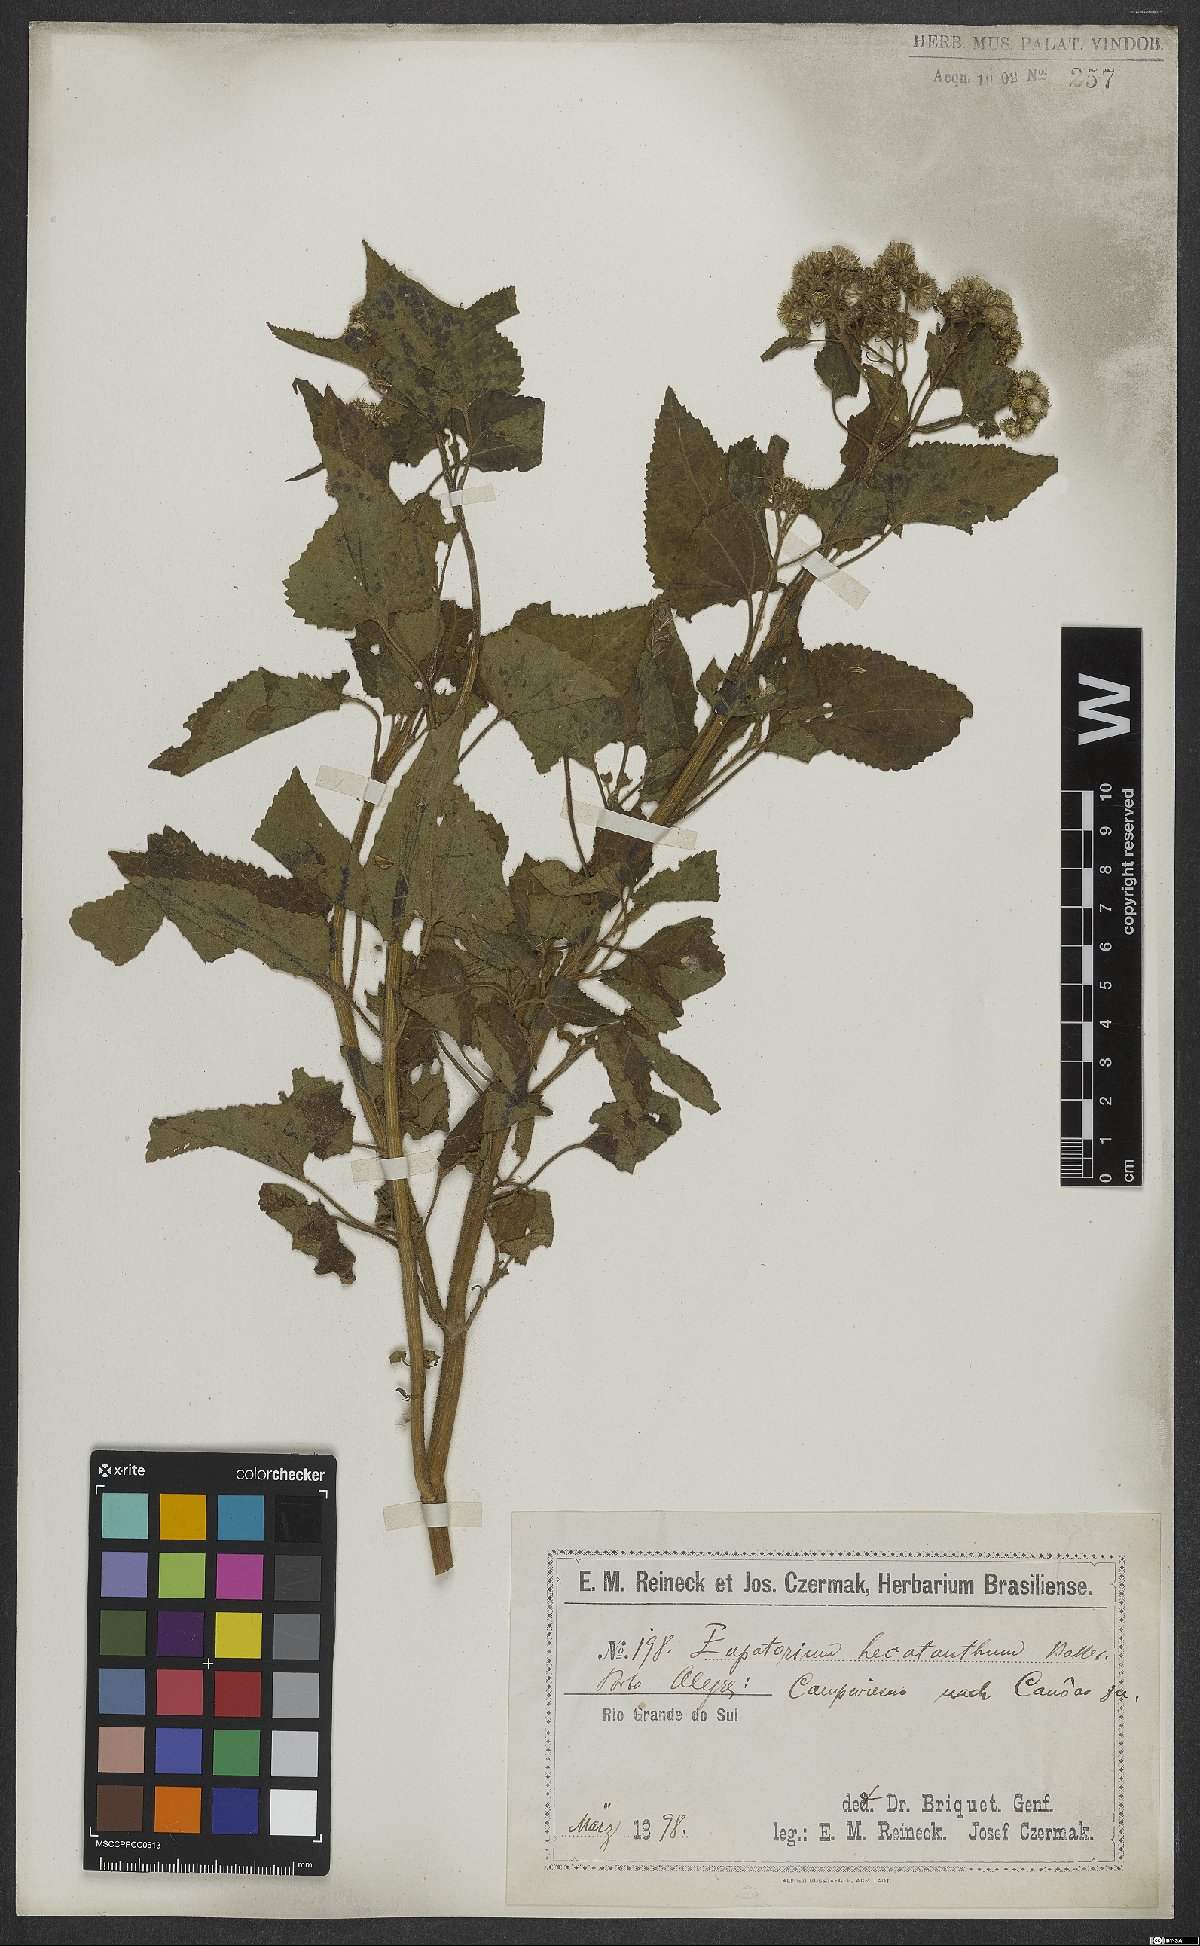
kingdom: Plantae
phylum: Tracheophyta
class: Magnoliopsida
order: Asterales
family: Asteraceae
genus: Praxelis
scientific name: Praxelis hecatantha
